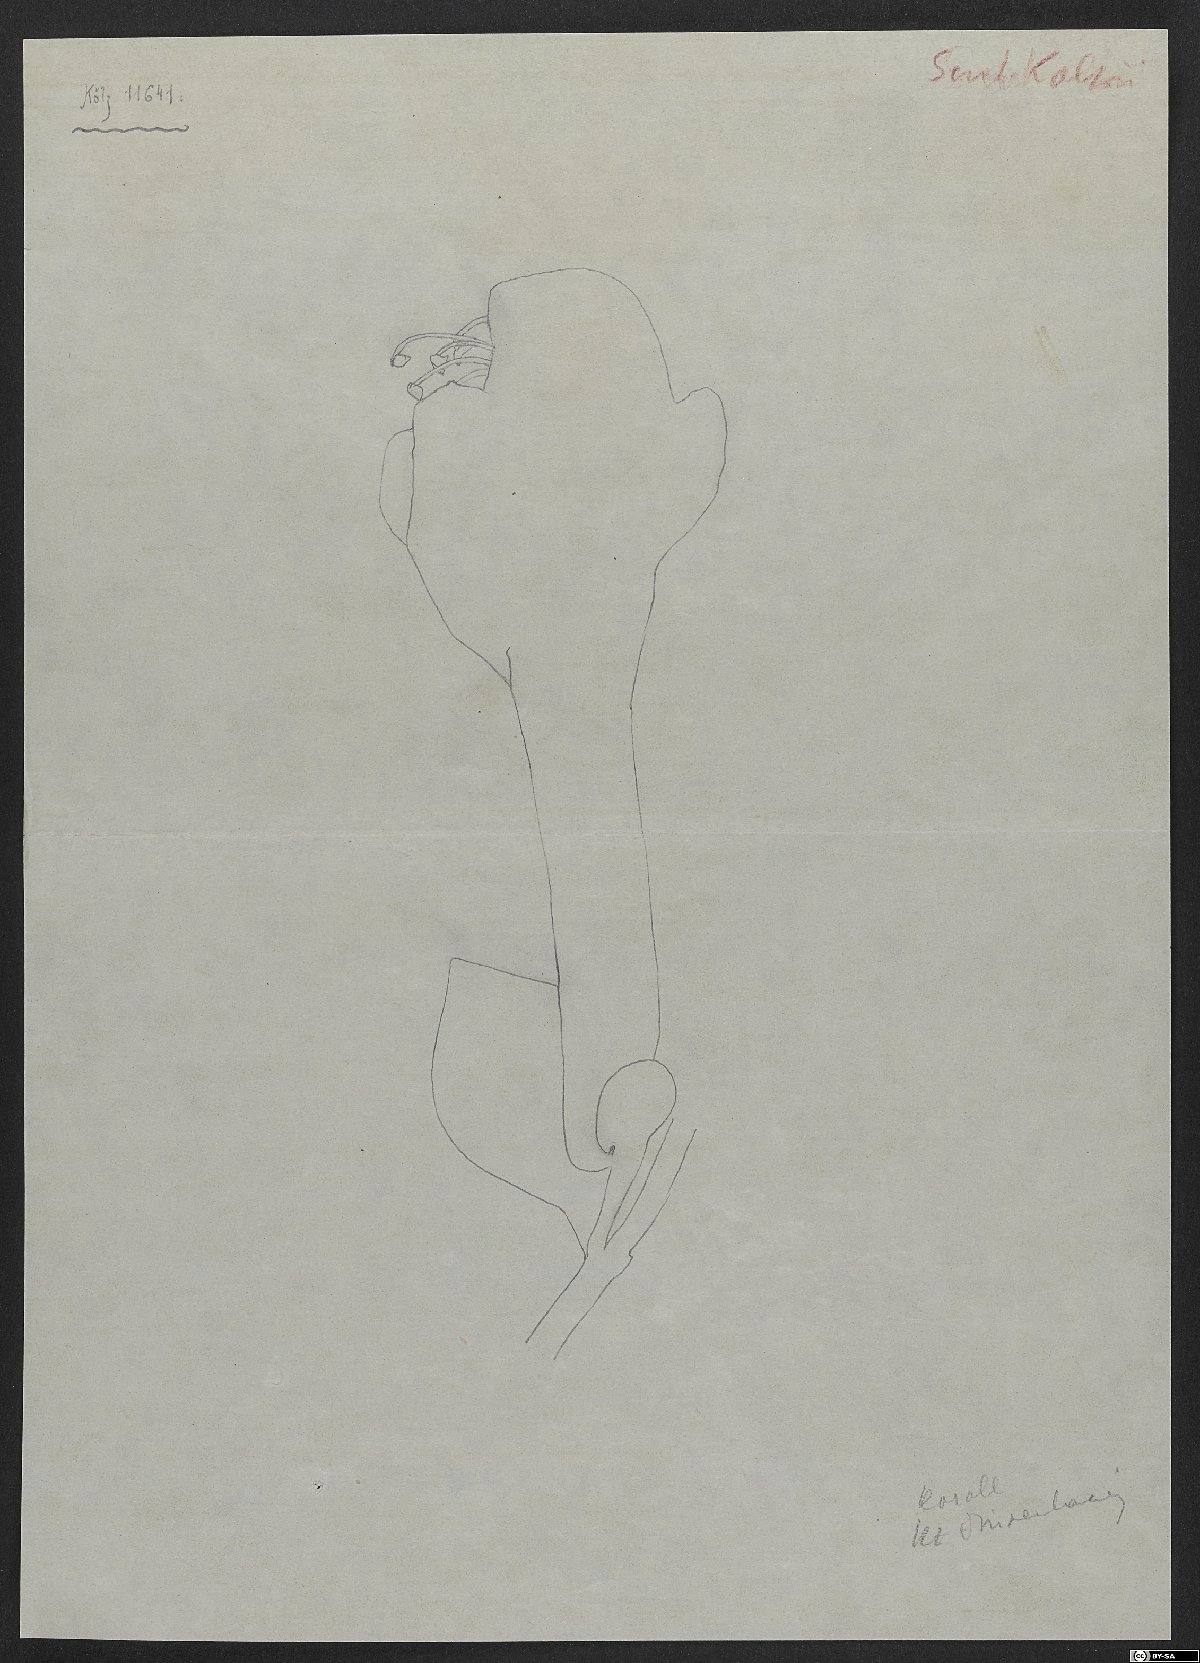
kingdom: Plantae
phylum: Tracheophyta
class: Magnoliopsida
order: Lamiales
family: Lamiaceae
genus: Scutellaria
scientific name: Scutellaria multicaulis
